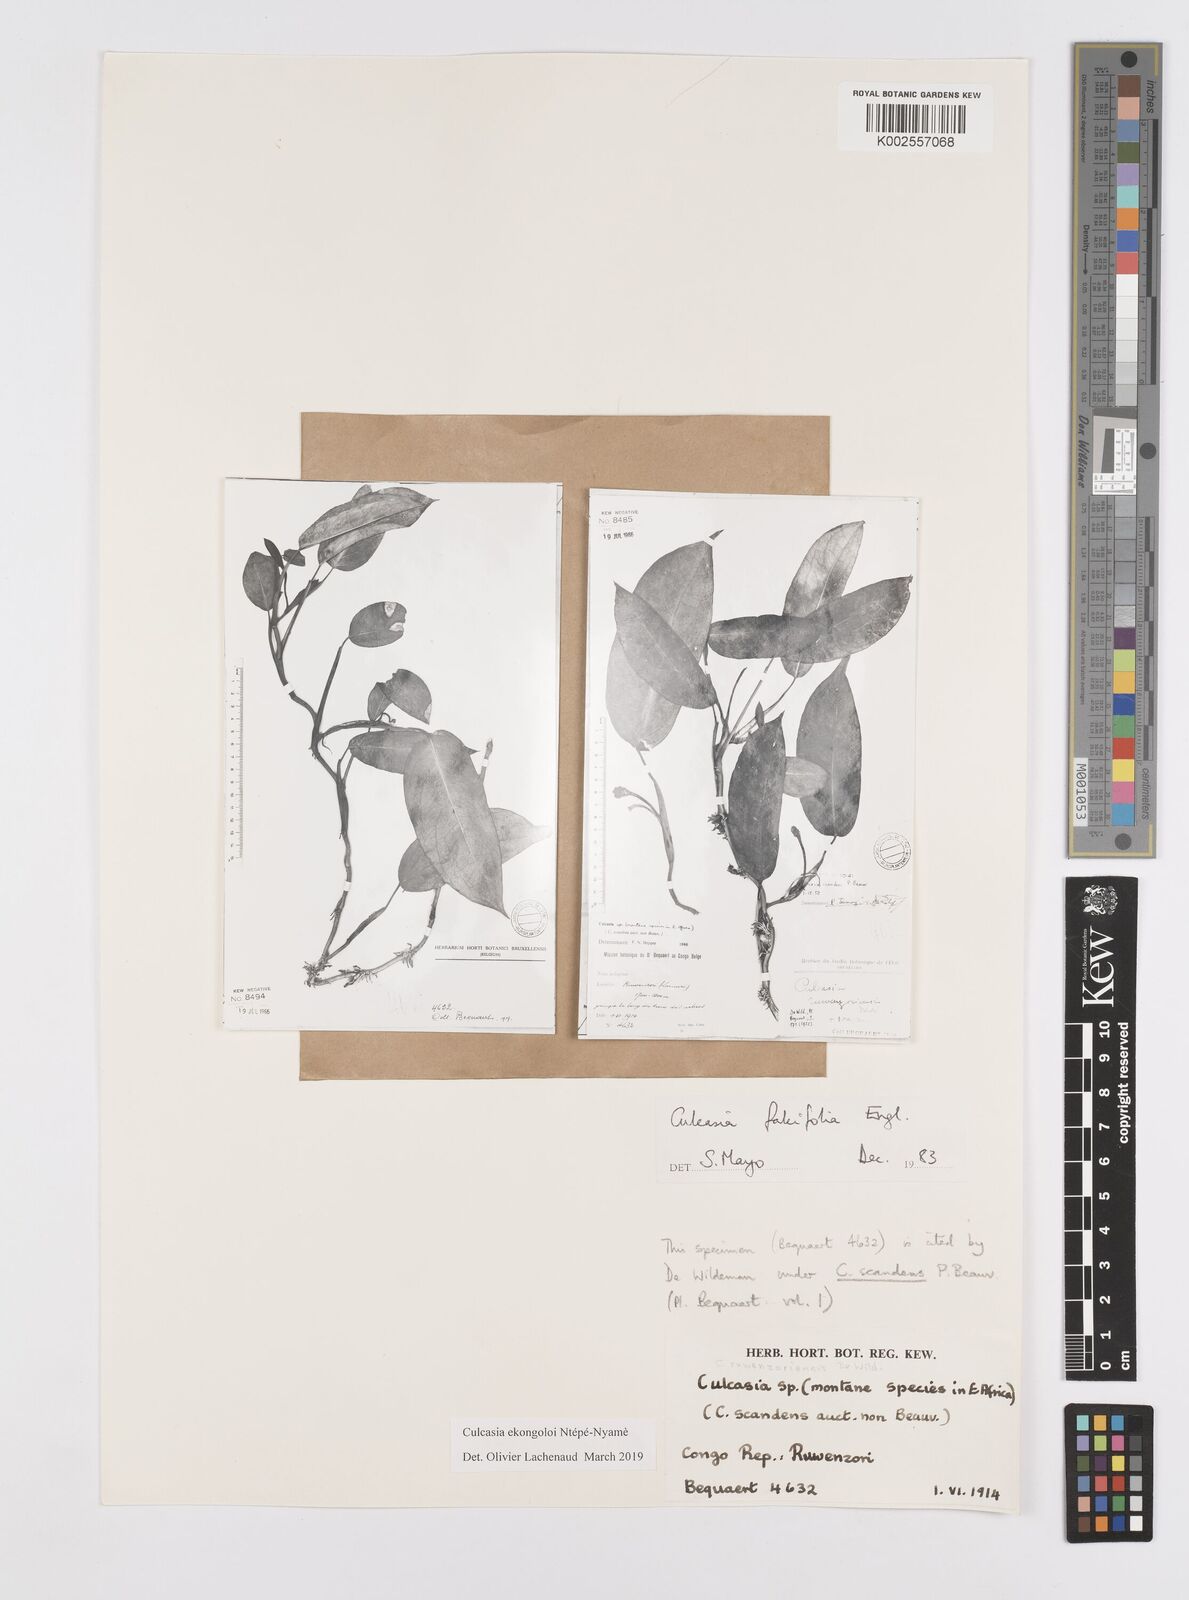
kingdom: Plantae
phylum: Tracheophyta
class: Liliopsida
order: Alismatales
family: Araceae
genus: Culcasia
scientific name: Culcasia ekongoloi
